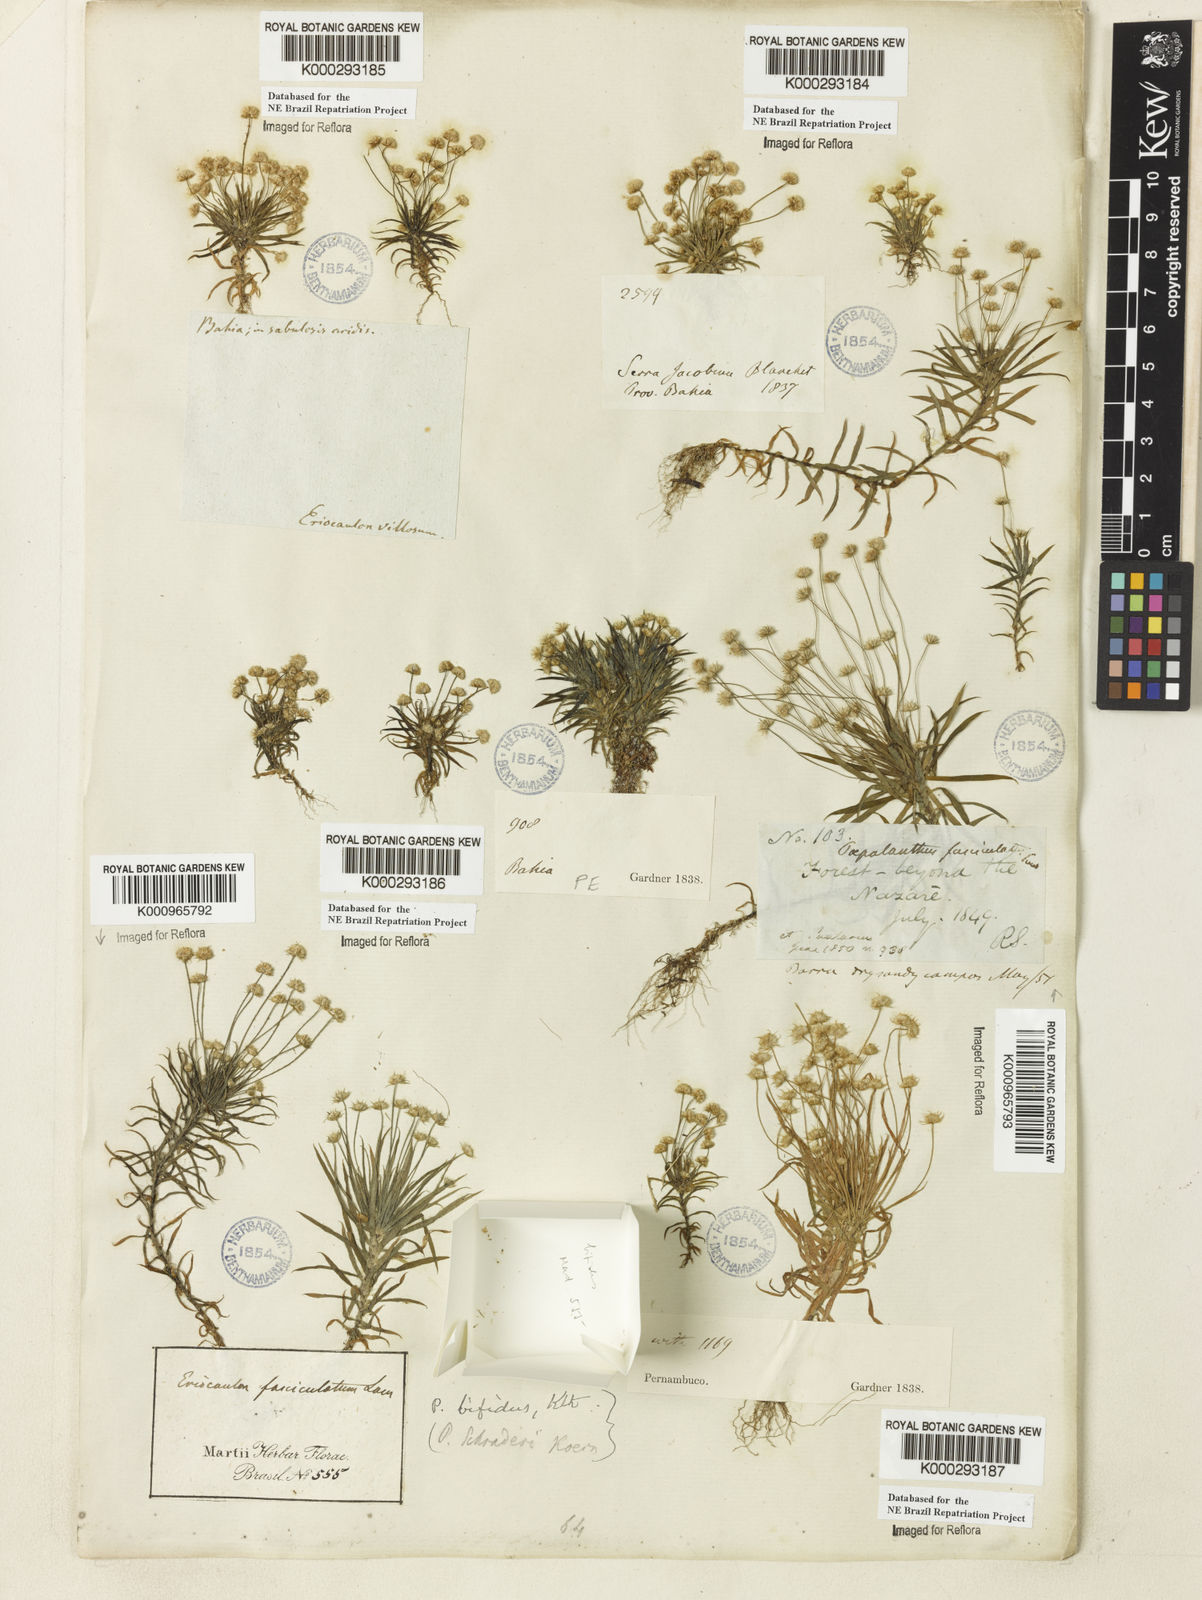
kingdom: Plantae
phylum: Tracheophyta
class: Liliopsida
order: Poales
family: Eriocaulaceae
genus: Paepalanthus
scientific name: Paepalanthus bifidus
